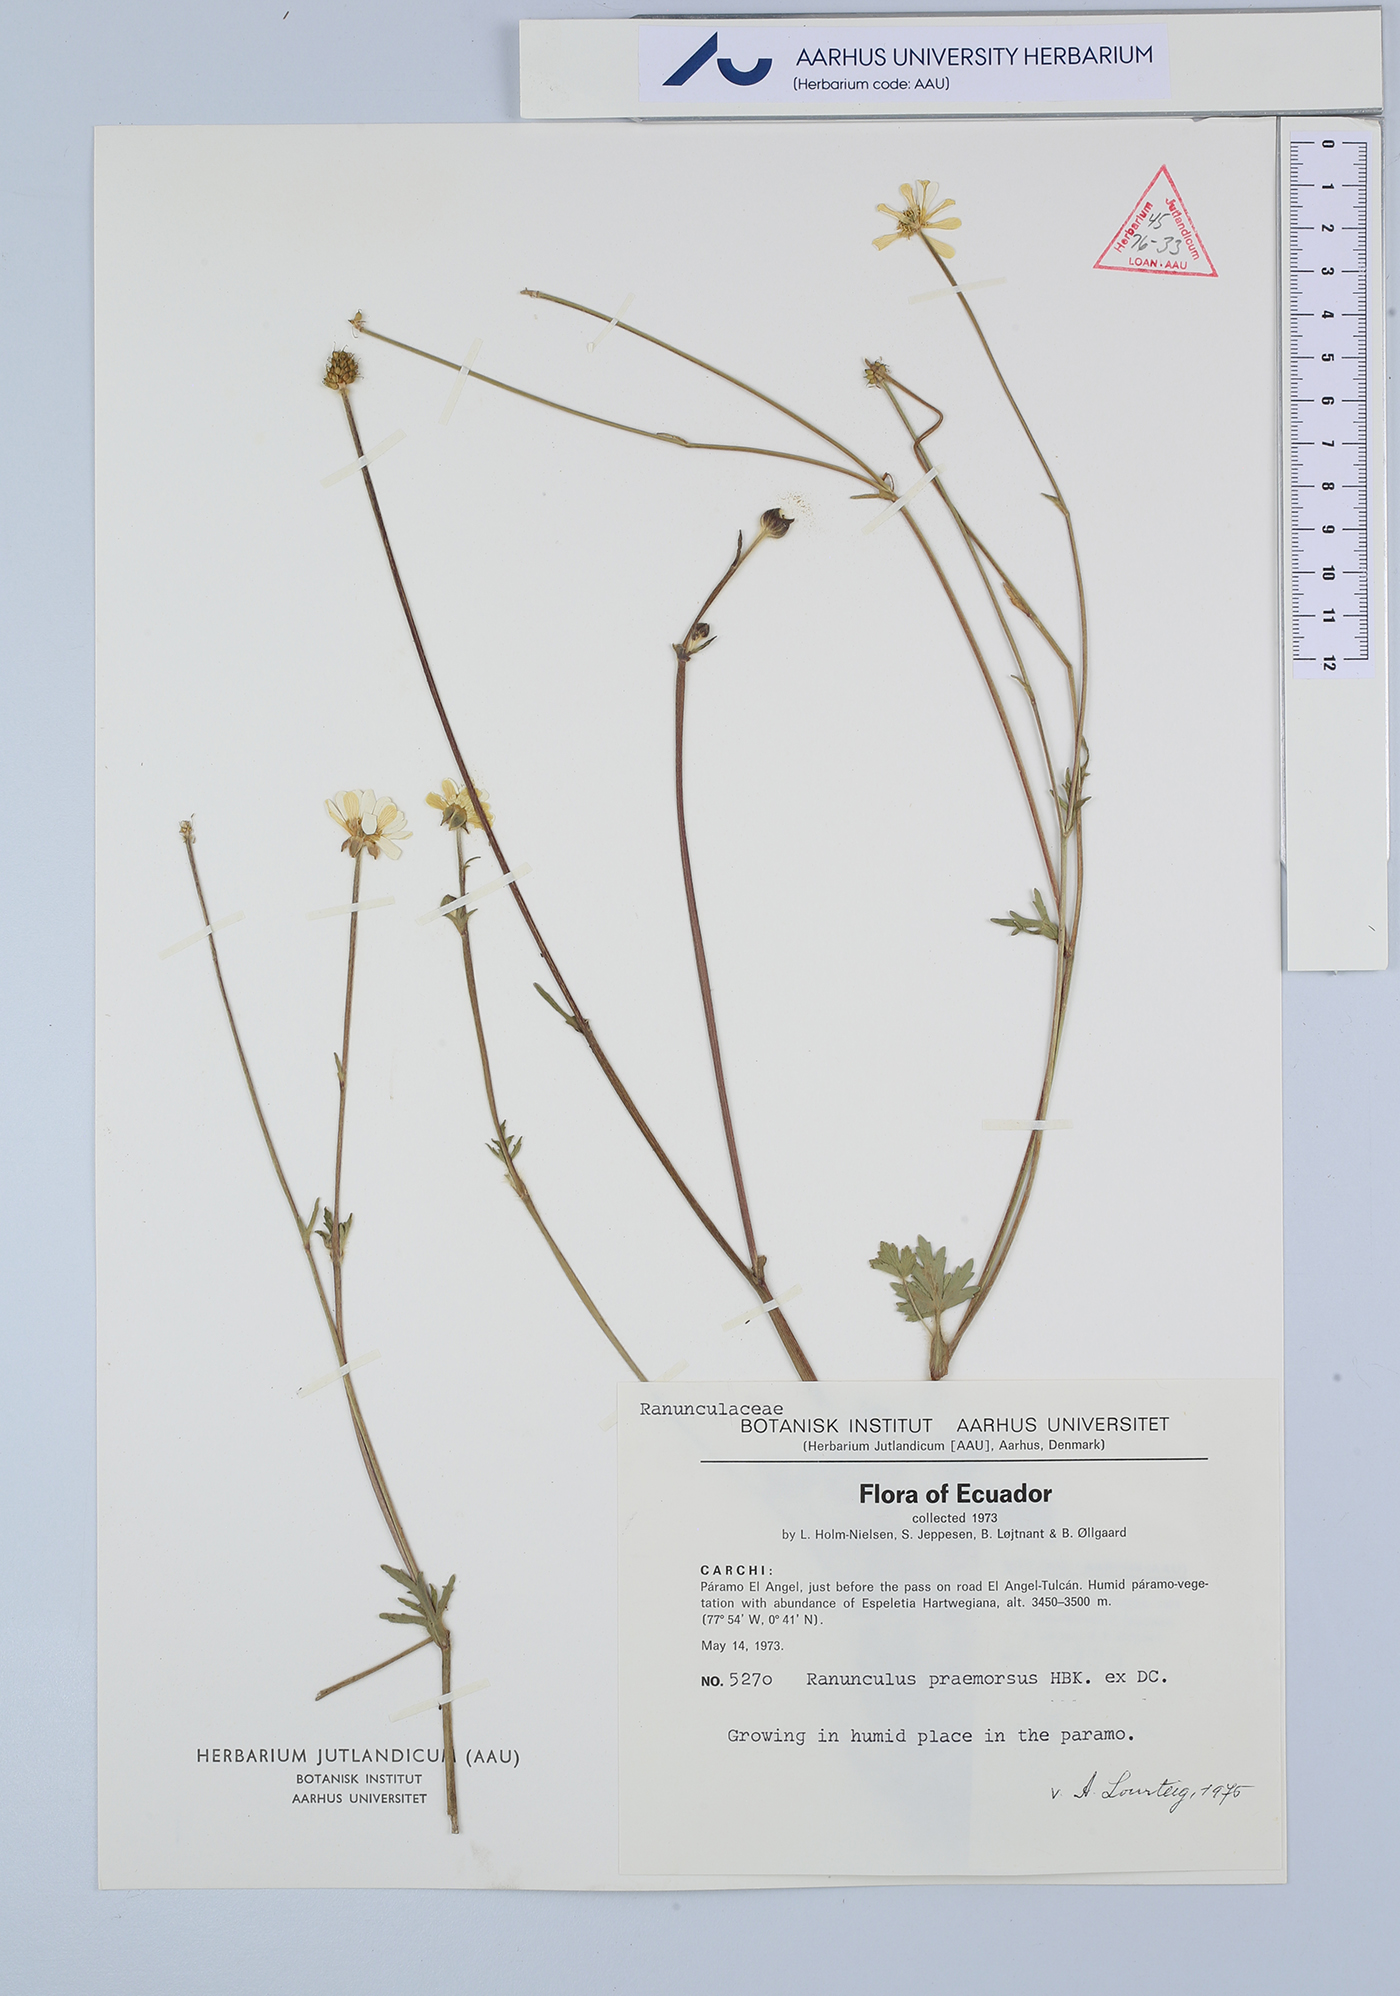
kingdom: Plantae
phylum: Tracheophyta
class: Magnoliopsida
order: Ranunculales
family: Ranunculaceae
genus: Ranunculus
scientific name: Ranunculus praemorsus
